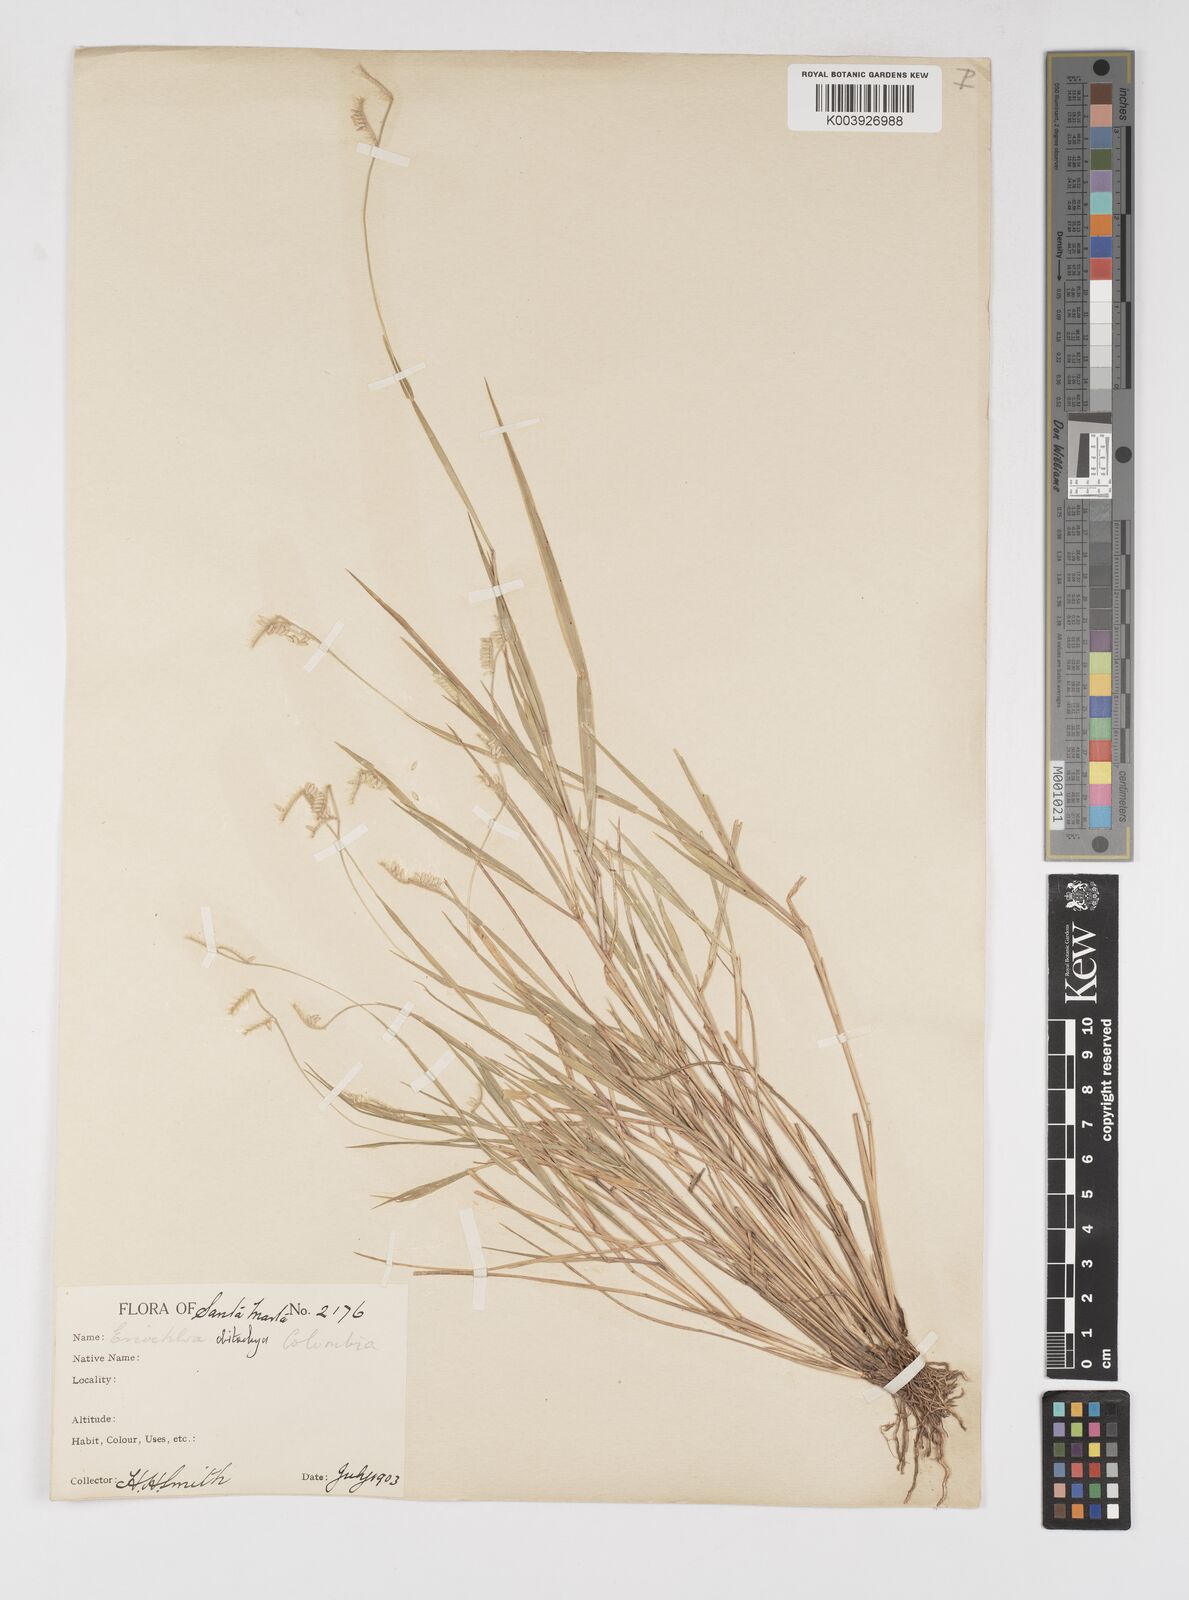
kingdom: Plantae
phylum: Tracheophyta
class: Liliopsida
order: Poales
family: Poaceae
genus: Eriochloa
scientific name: Eriochloa distachya
